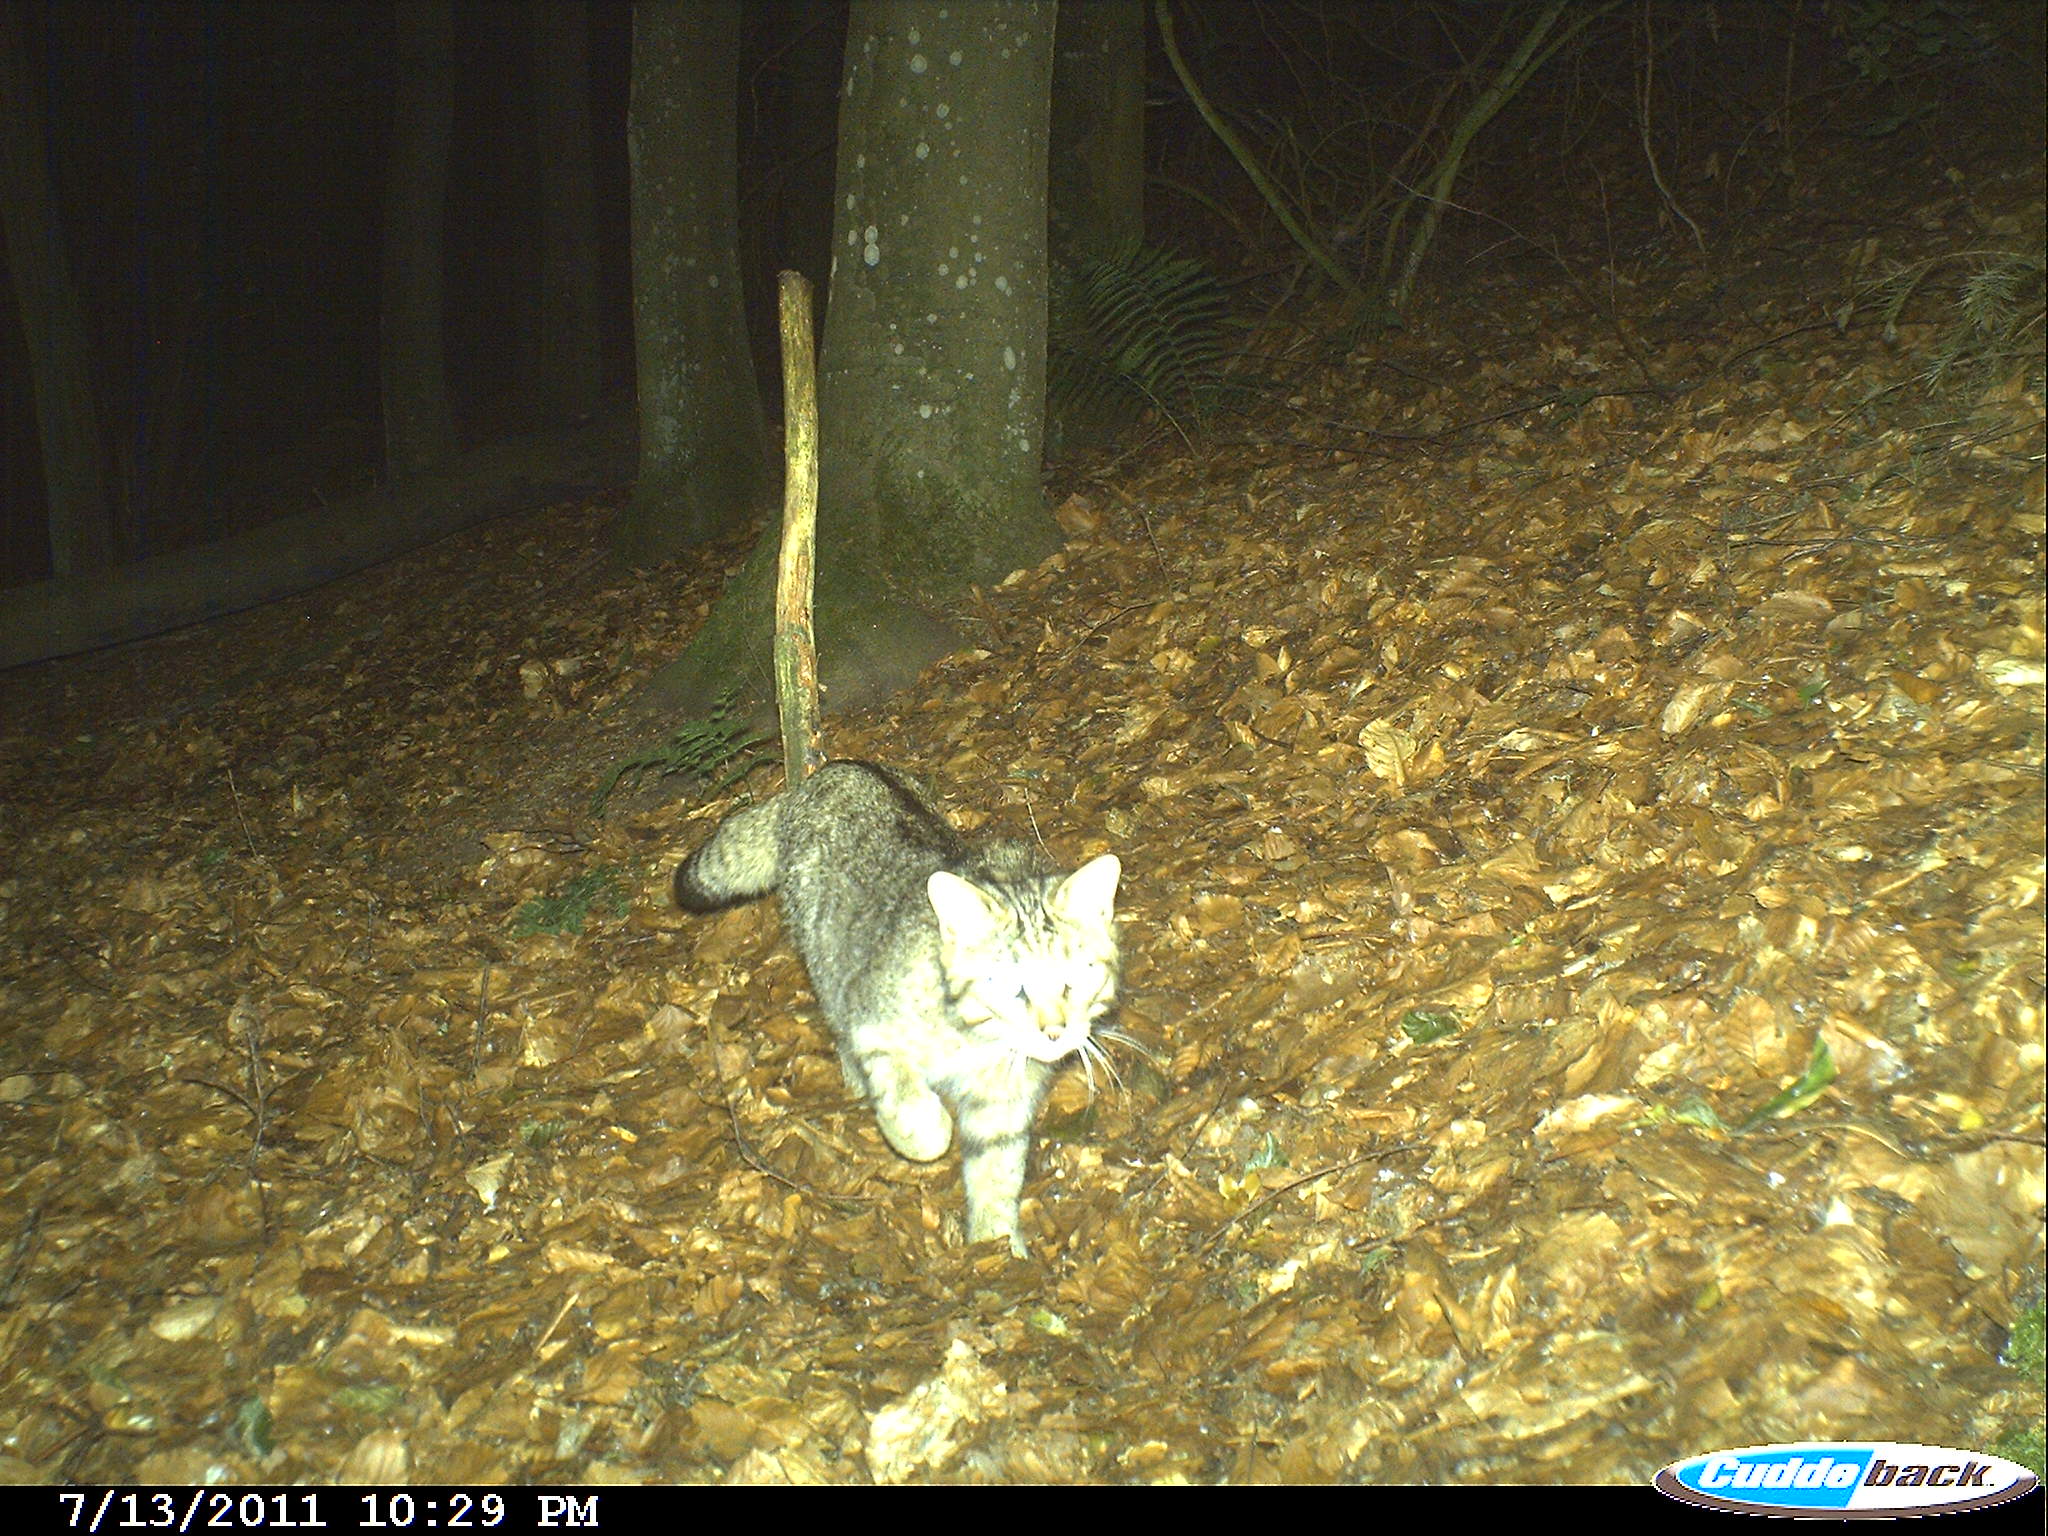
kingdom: Animalia
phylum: Chordata
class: Mammalia
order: Carnivora
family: Felidae
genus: Felis
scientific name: Felis silvestris
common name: Wildcat
